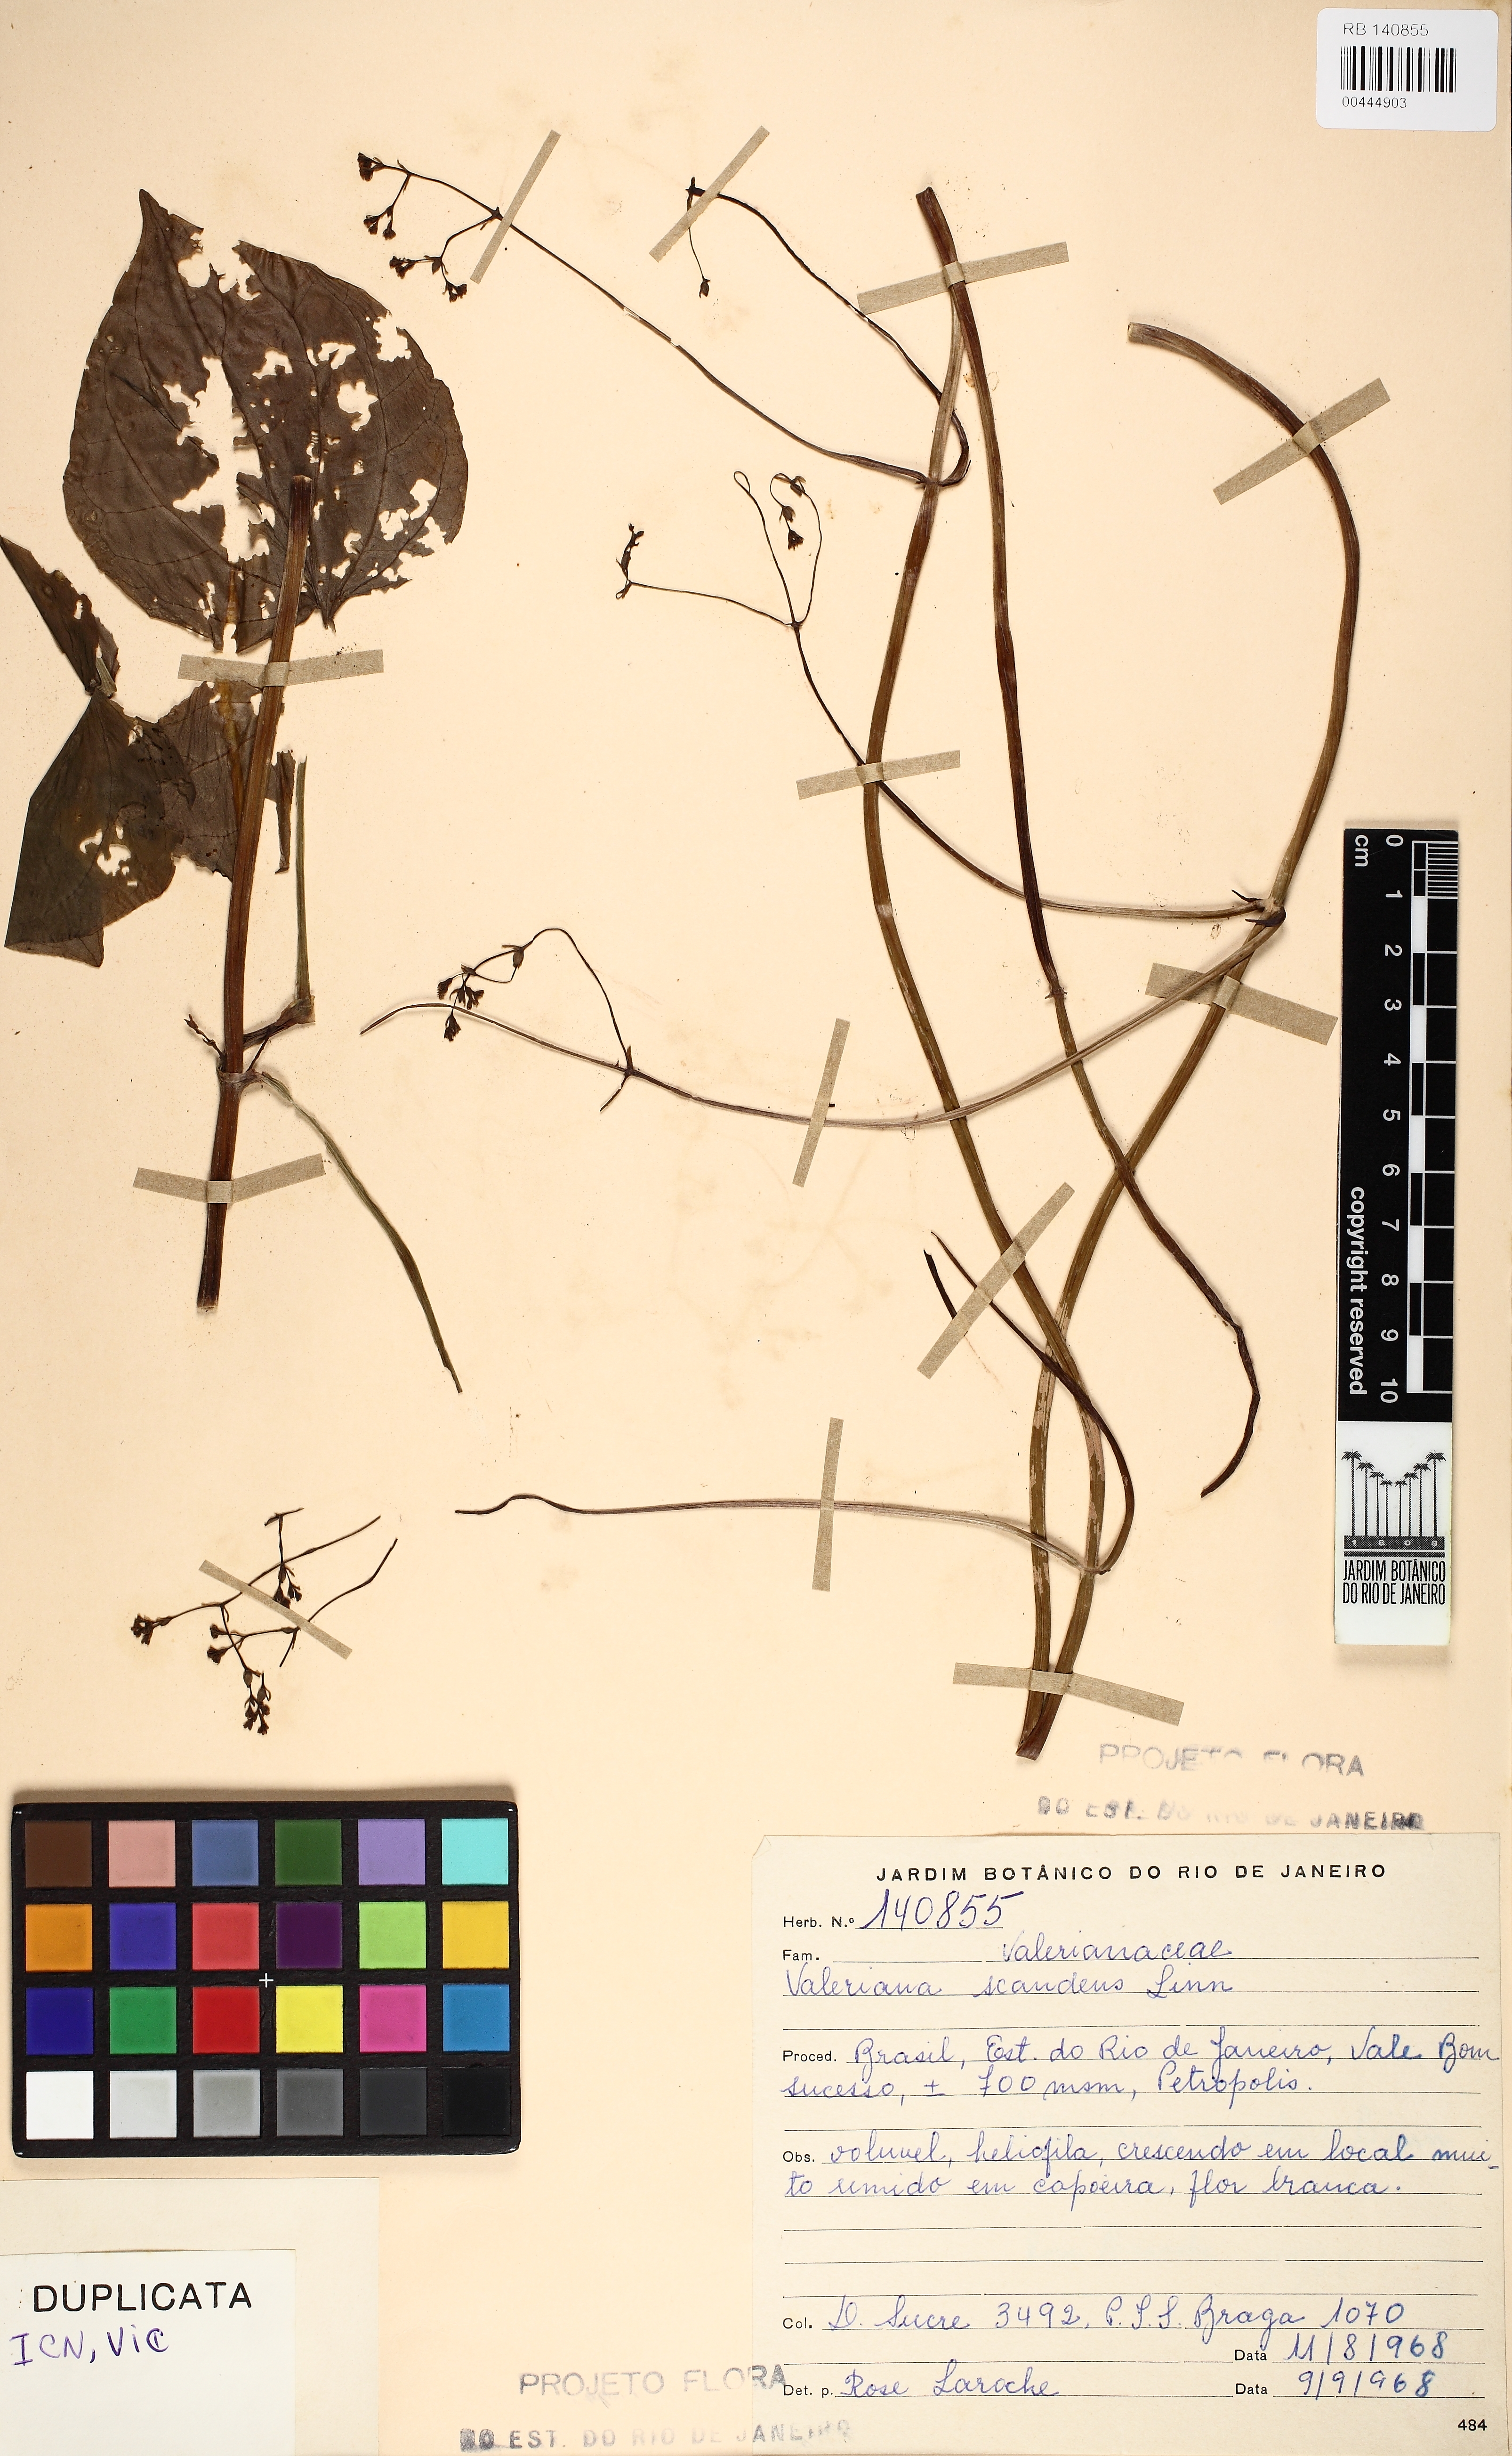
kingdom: Plantae
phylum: Tracheophyta
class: Magnoliopsida
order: Dipsacales
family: Caprifoliaceae
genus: Valeriana
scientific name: Valeriana scandens
